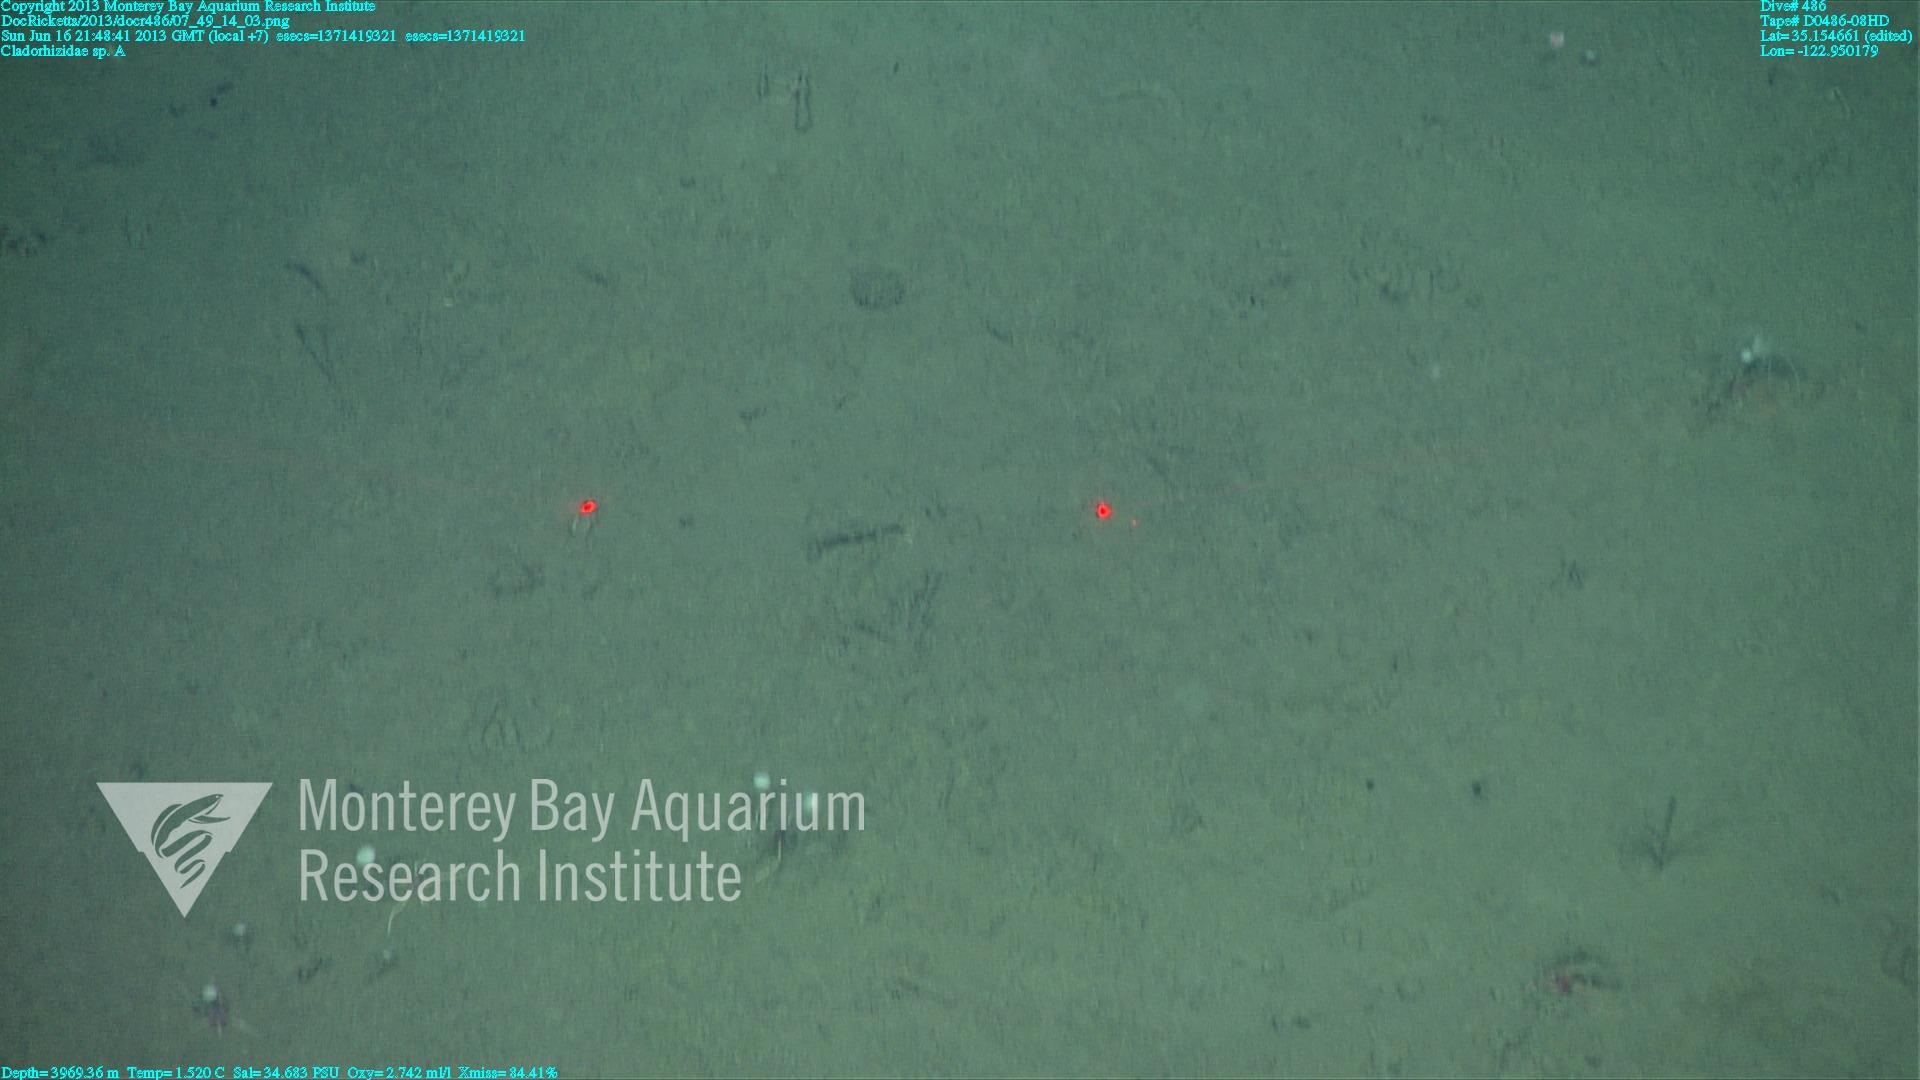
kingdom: Animalia
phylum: Porifera
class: Demospongiae
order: Poecilosclerida
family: Cladorhizidae
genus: Cladorhiza
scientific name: Cladorhiza
